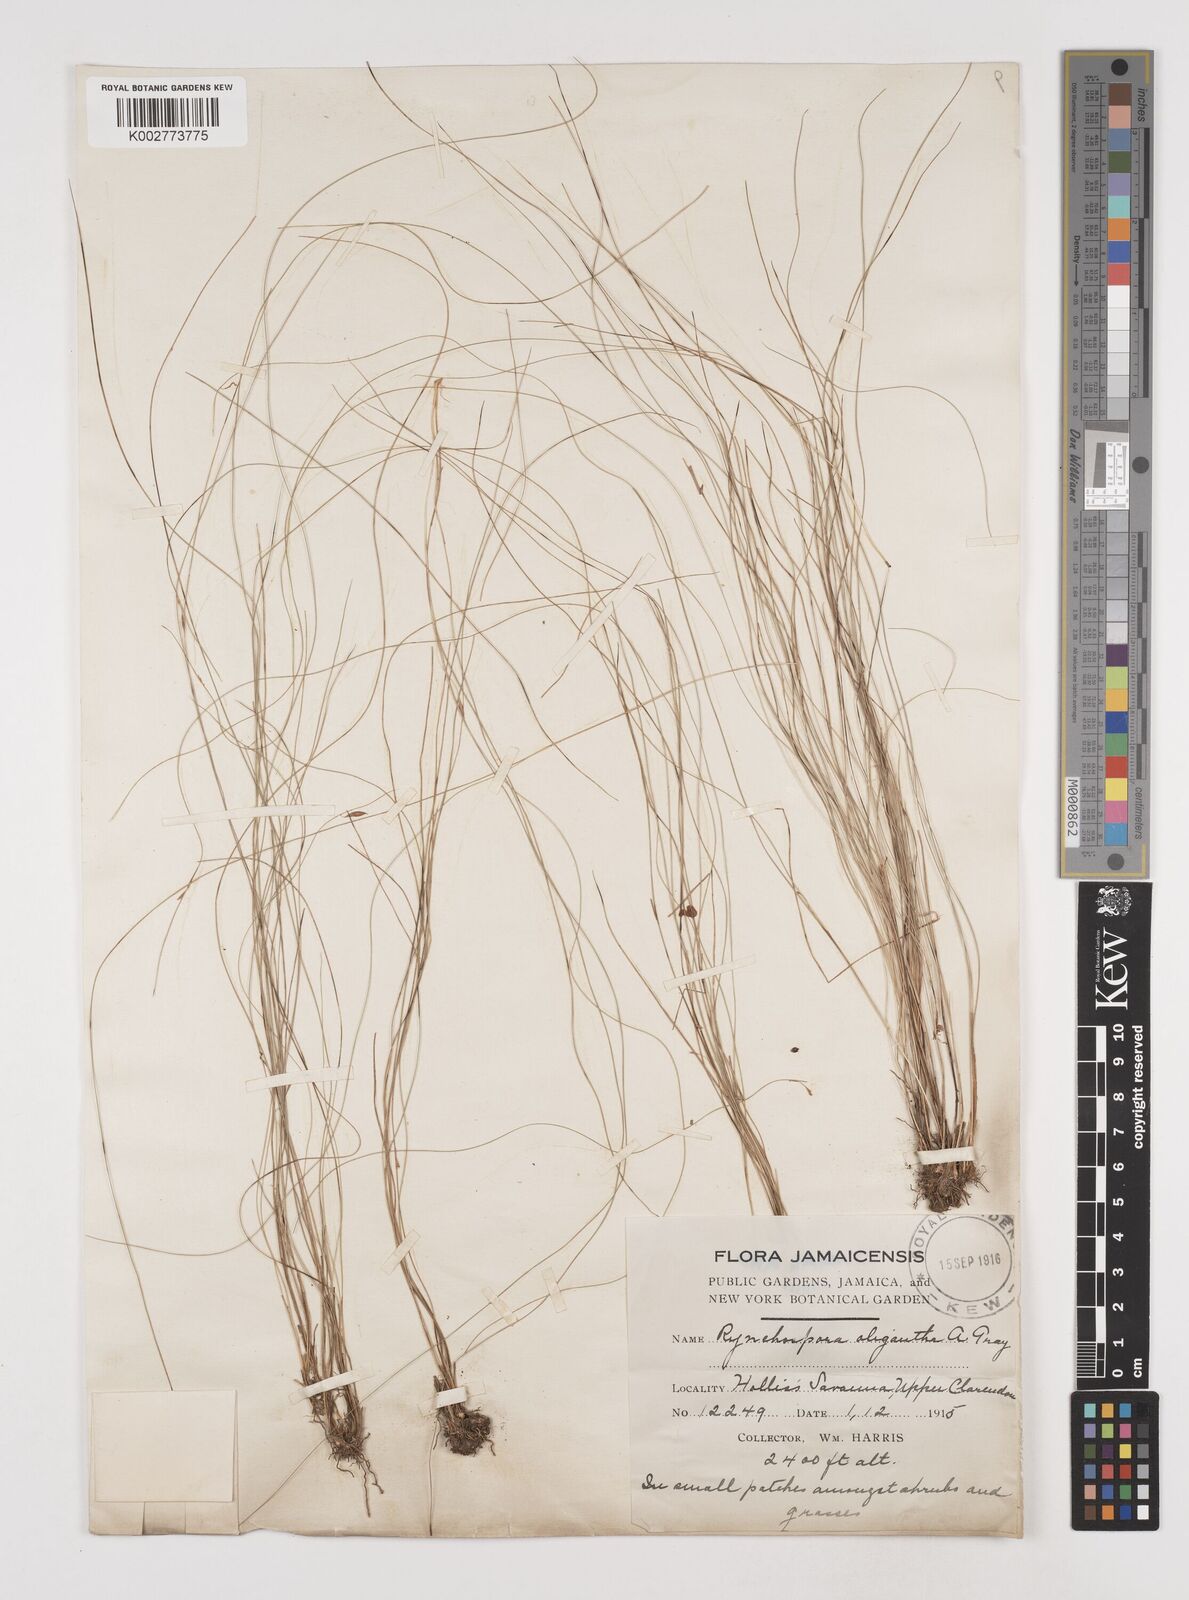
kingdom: Plantae
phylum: Tracheophyta
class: Liliopsida
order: Poales
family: Cyperaceae
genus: Rhynchospora
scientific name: Rhynchospora oligantha
